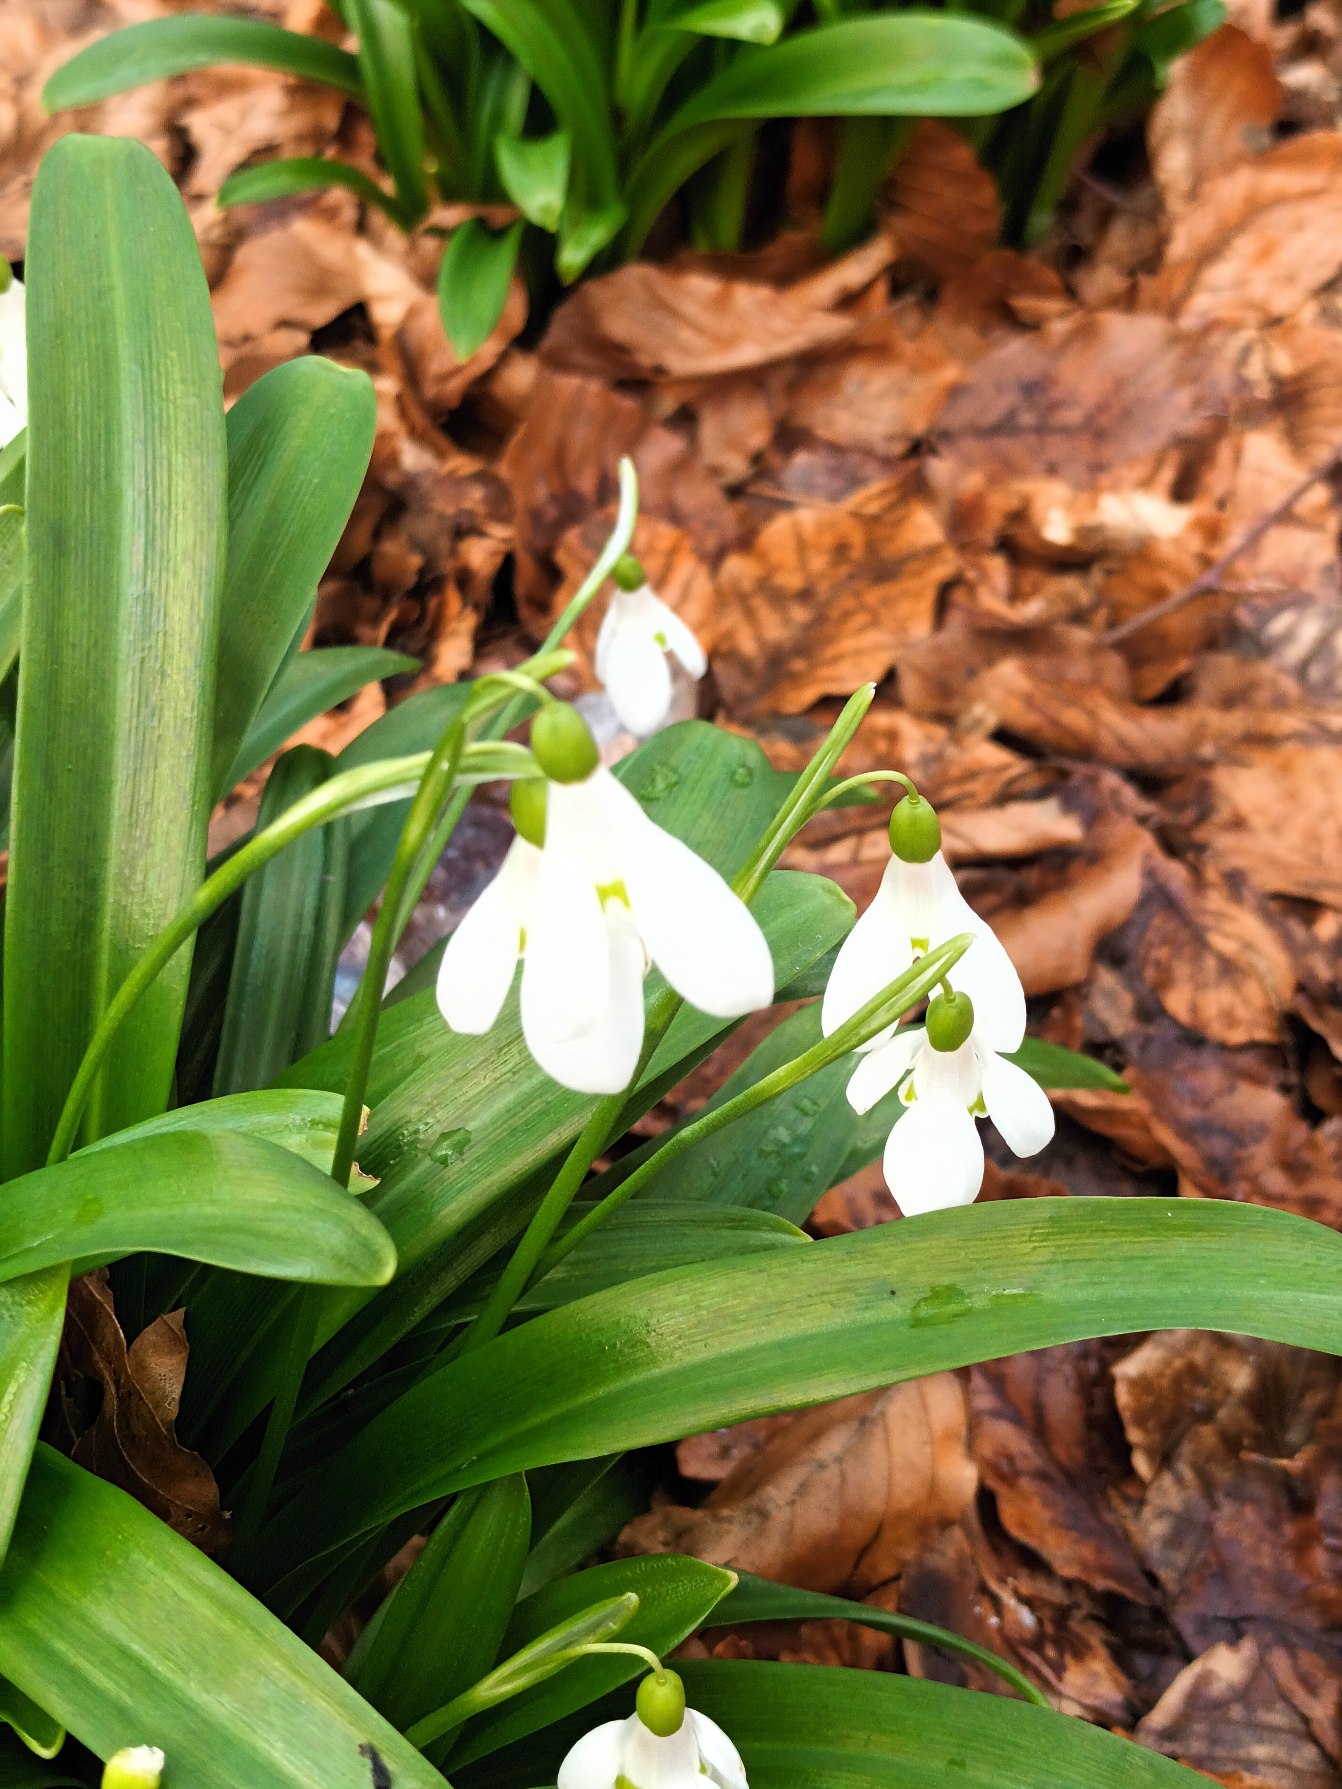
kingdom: Plantae
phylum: Tracheophyta
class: Liliopsida
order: Asparagales
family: Amaryllidaceae
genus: Galanthus
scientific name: Galanthus woronowii
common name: Kaukasisk vintergæk
